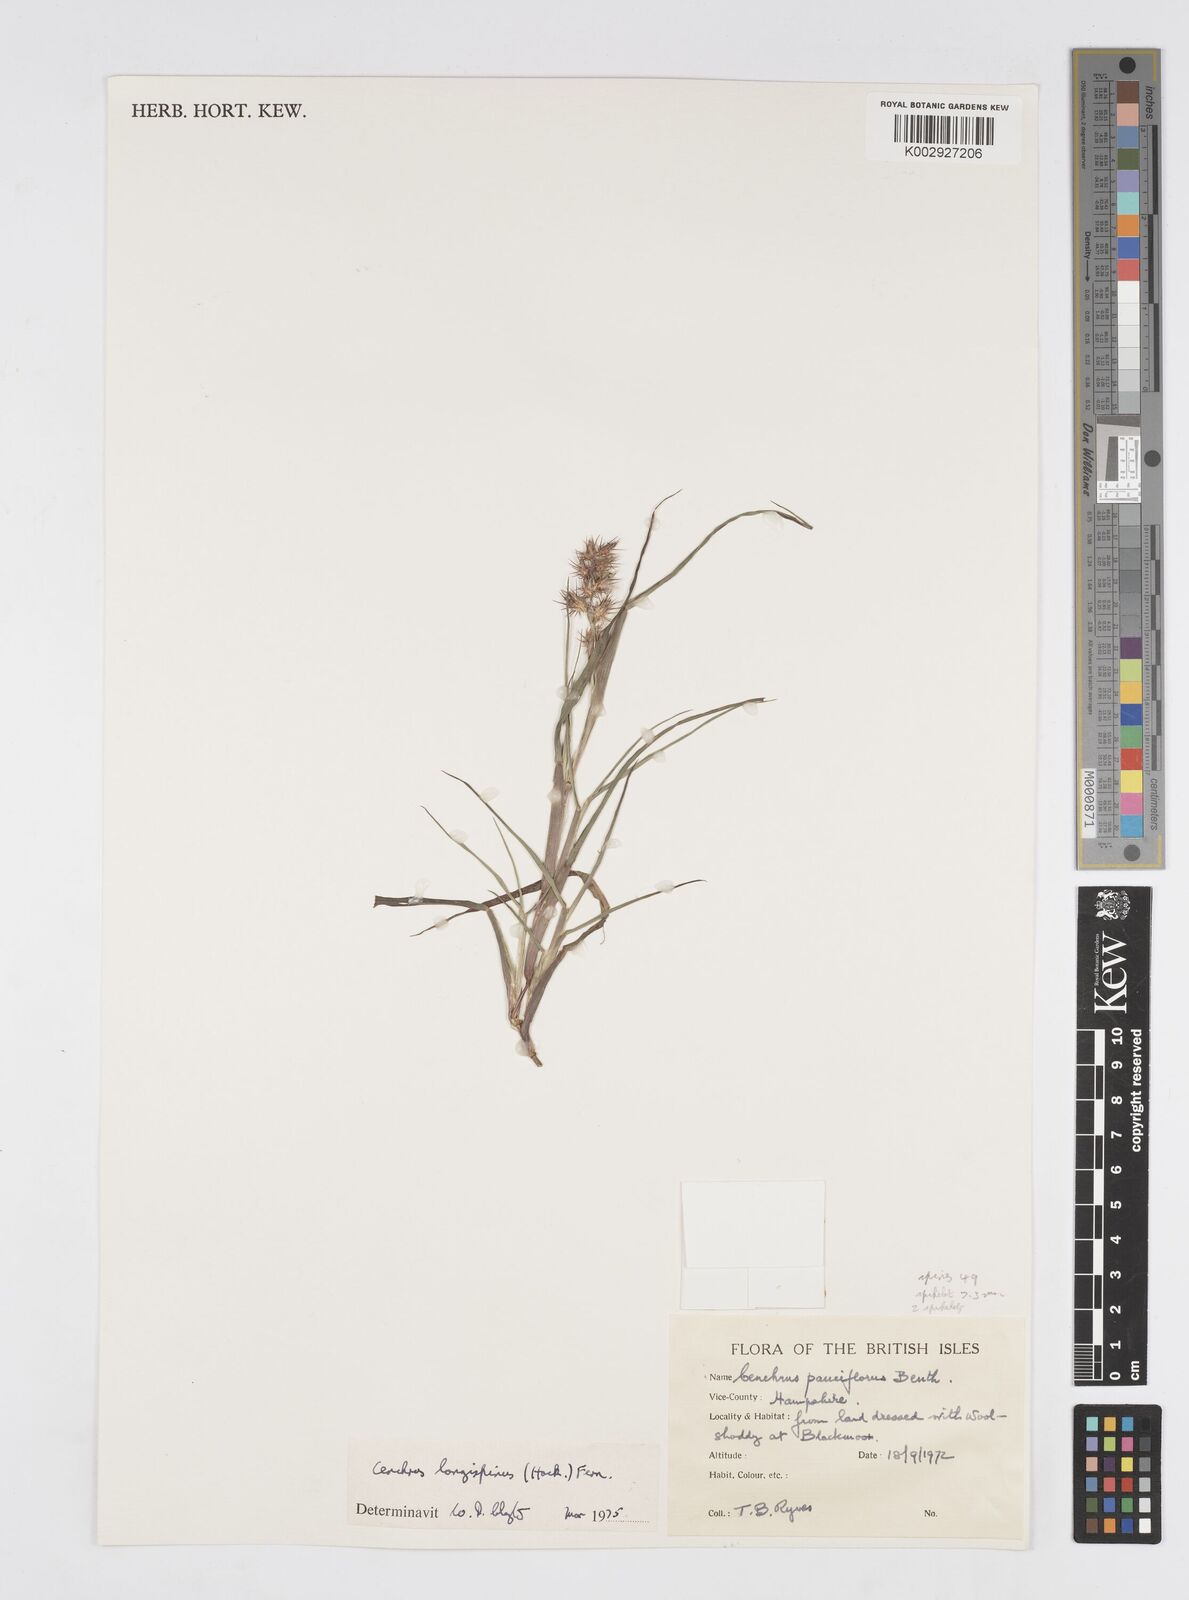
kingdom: Plantae
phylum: Tracheophyta
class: Liliopsida
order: Poales
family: Poaceae
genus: Cenchrus
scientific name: Cenchrus longispinus
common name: Mat sandbur
